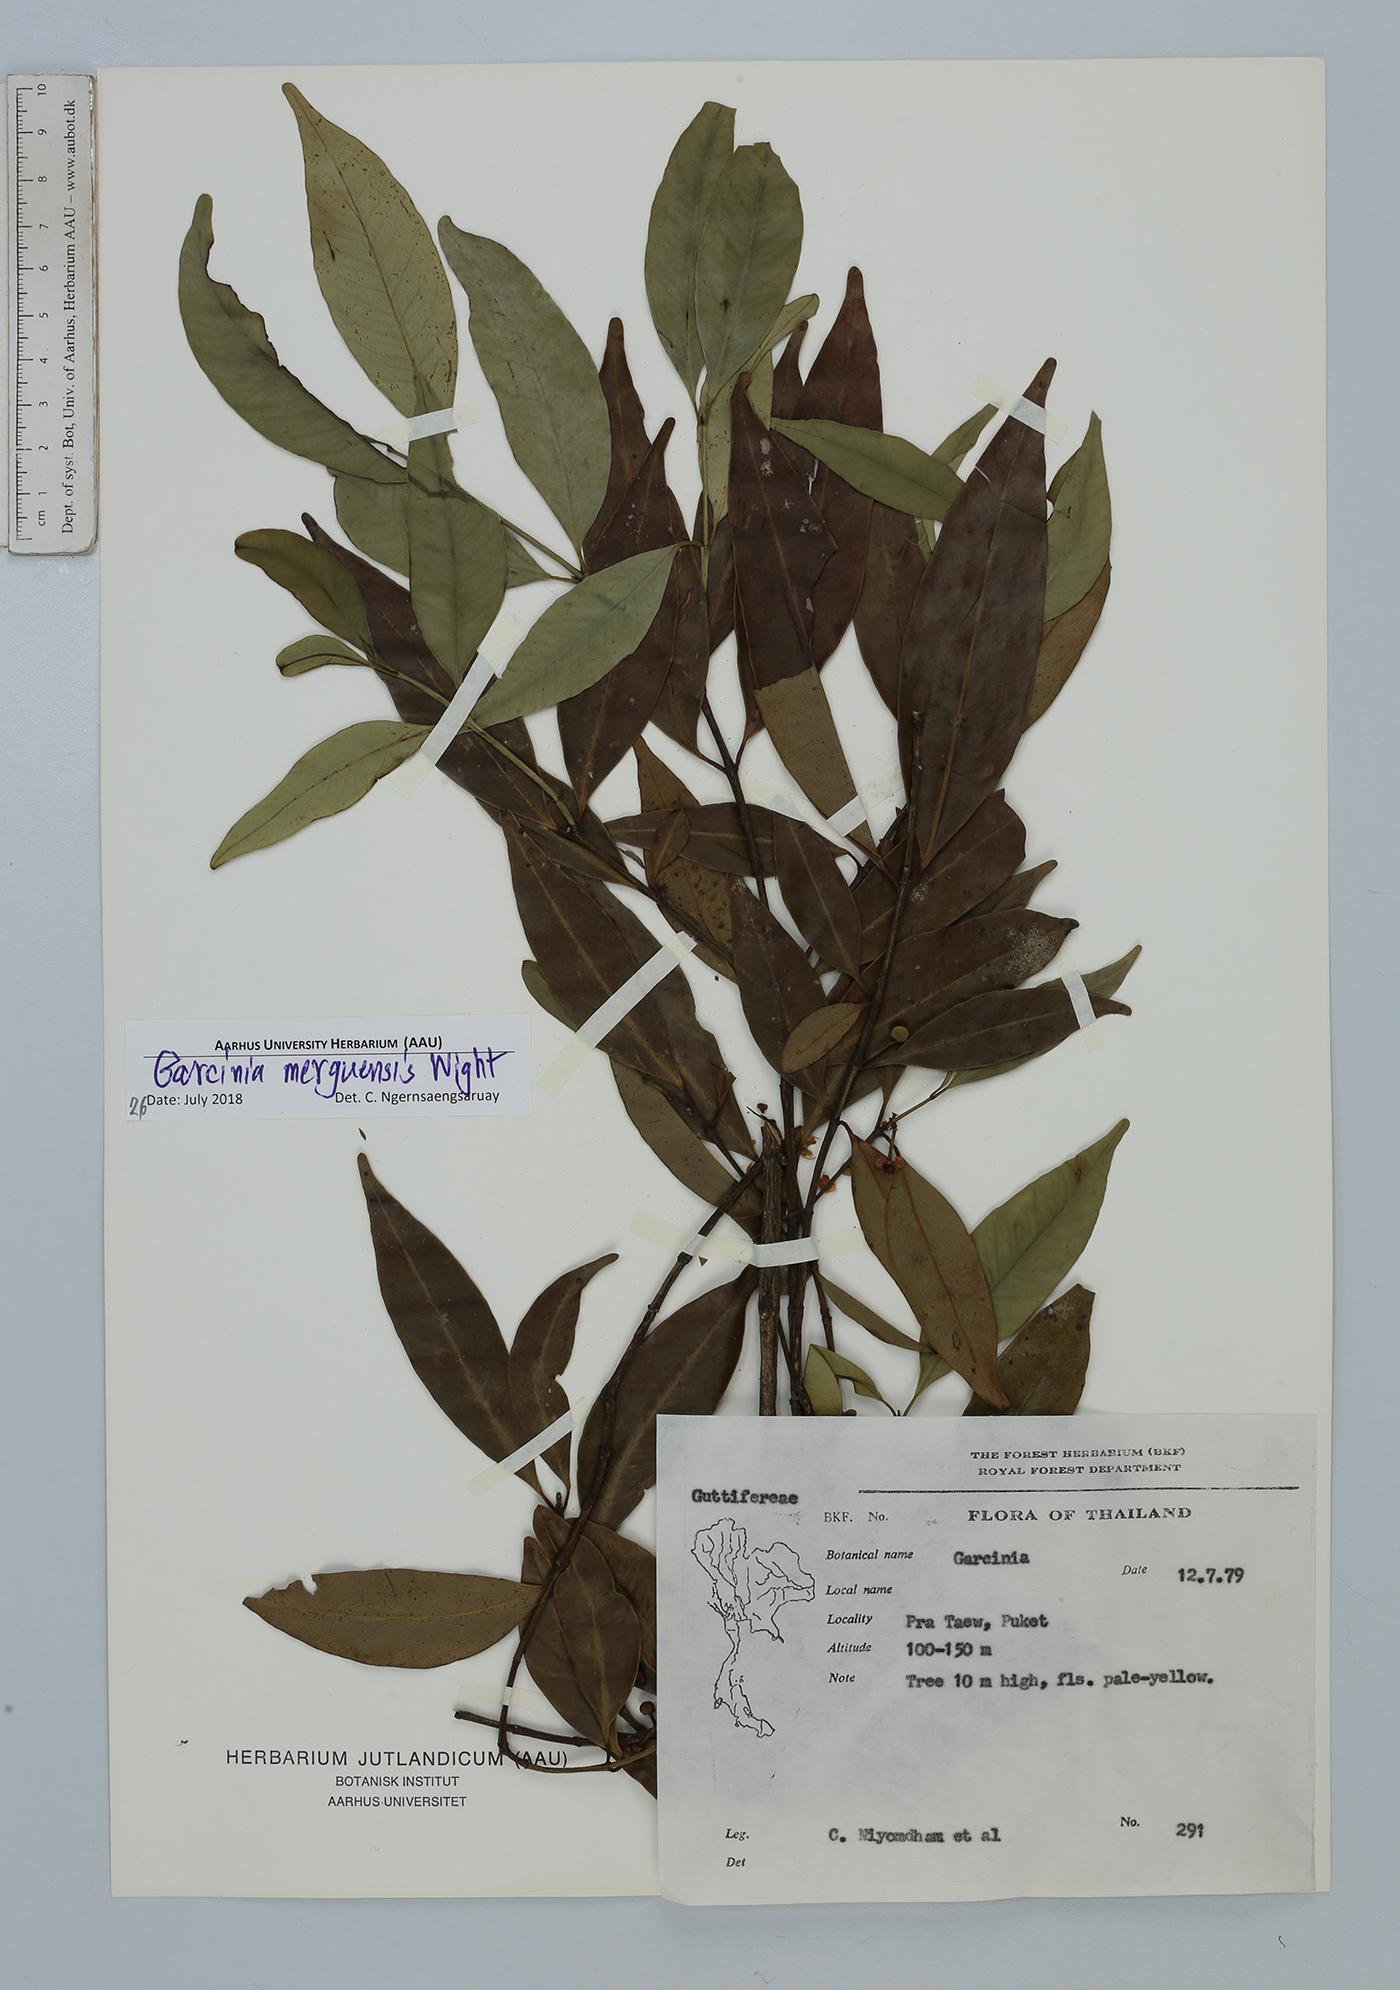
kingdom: Plantae
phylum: Tracheophyta
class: Magnoliopsida
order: Malpighiales
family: Clusiaceae
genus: Garcinia
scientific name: Garcinia merguensis
